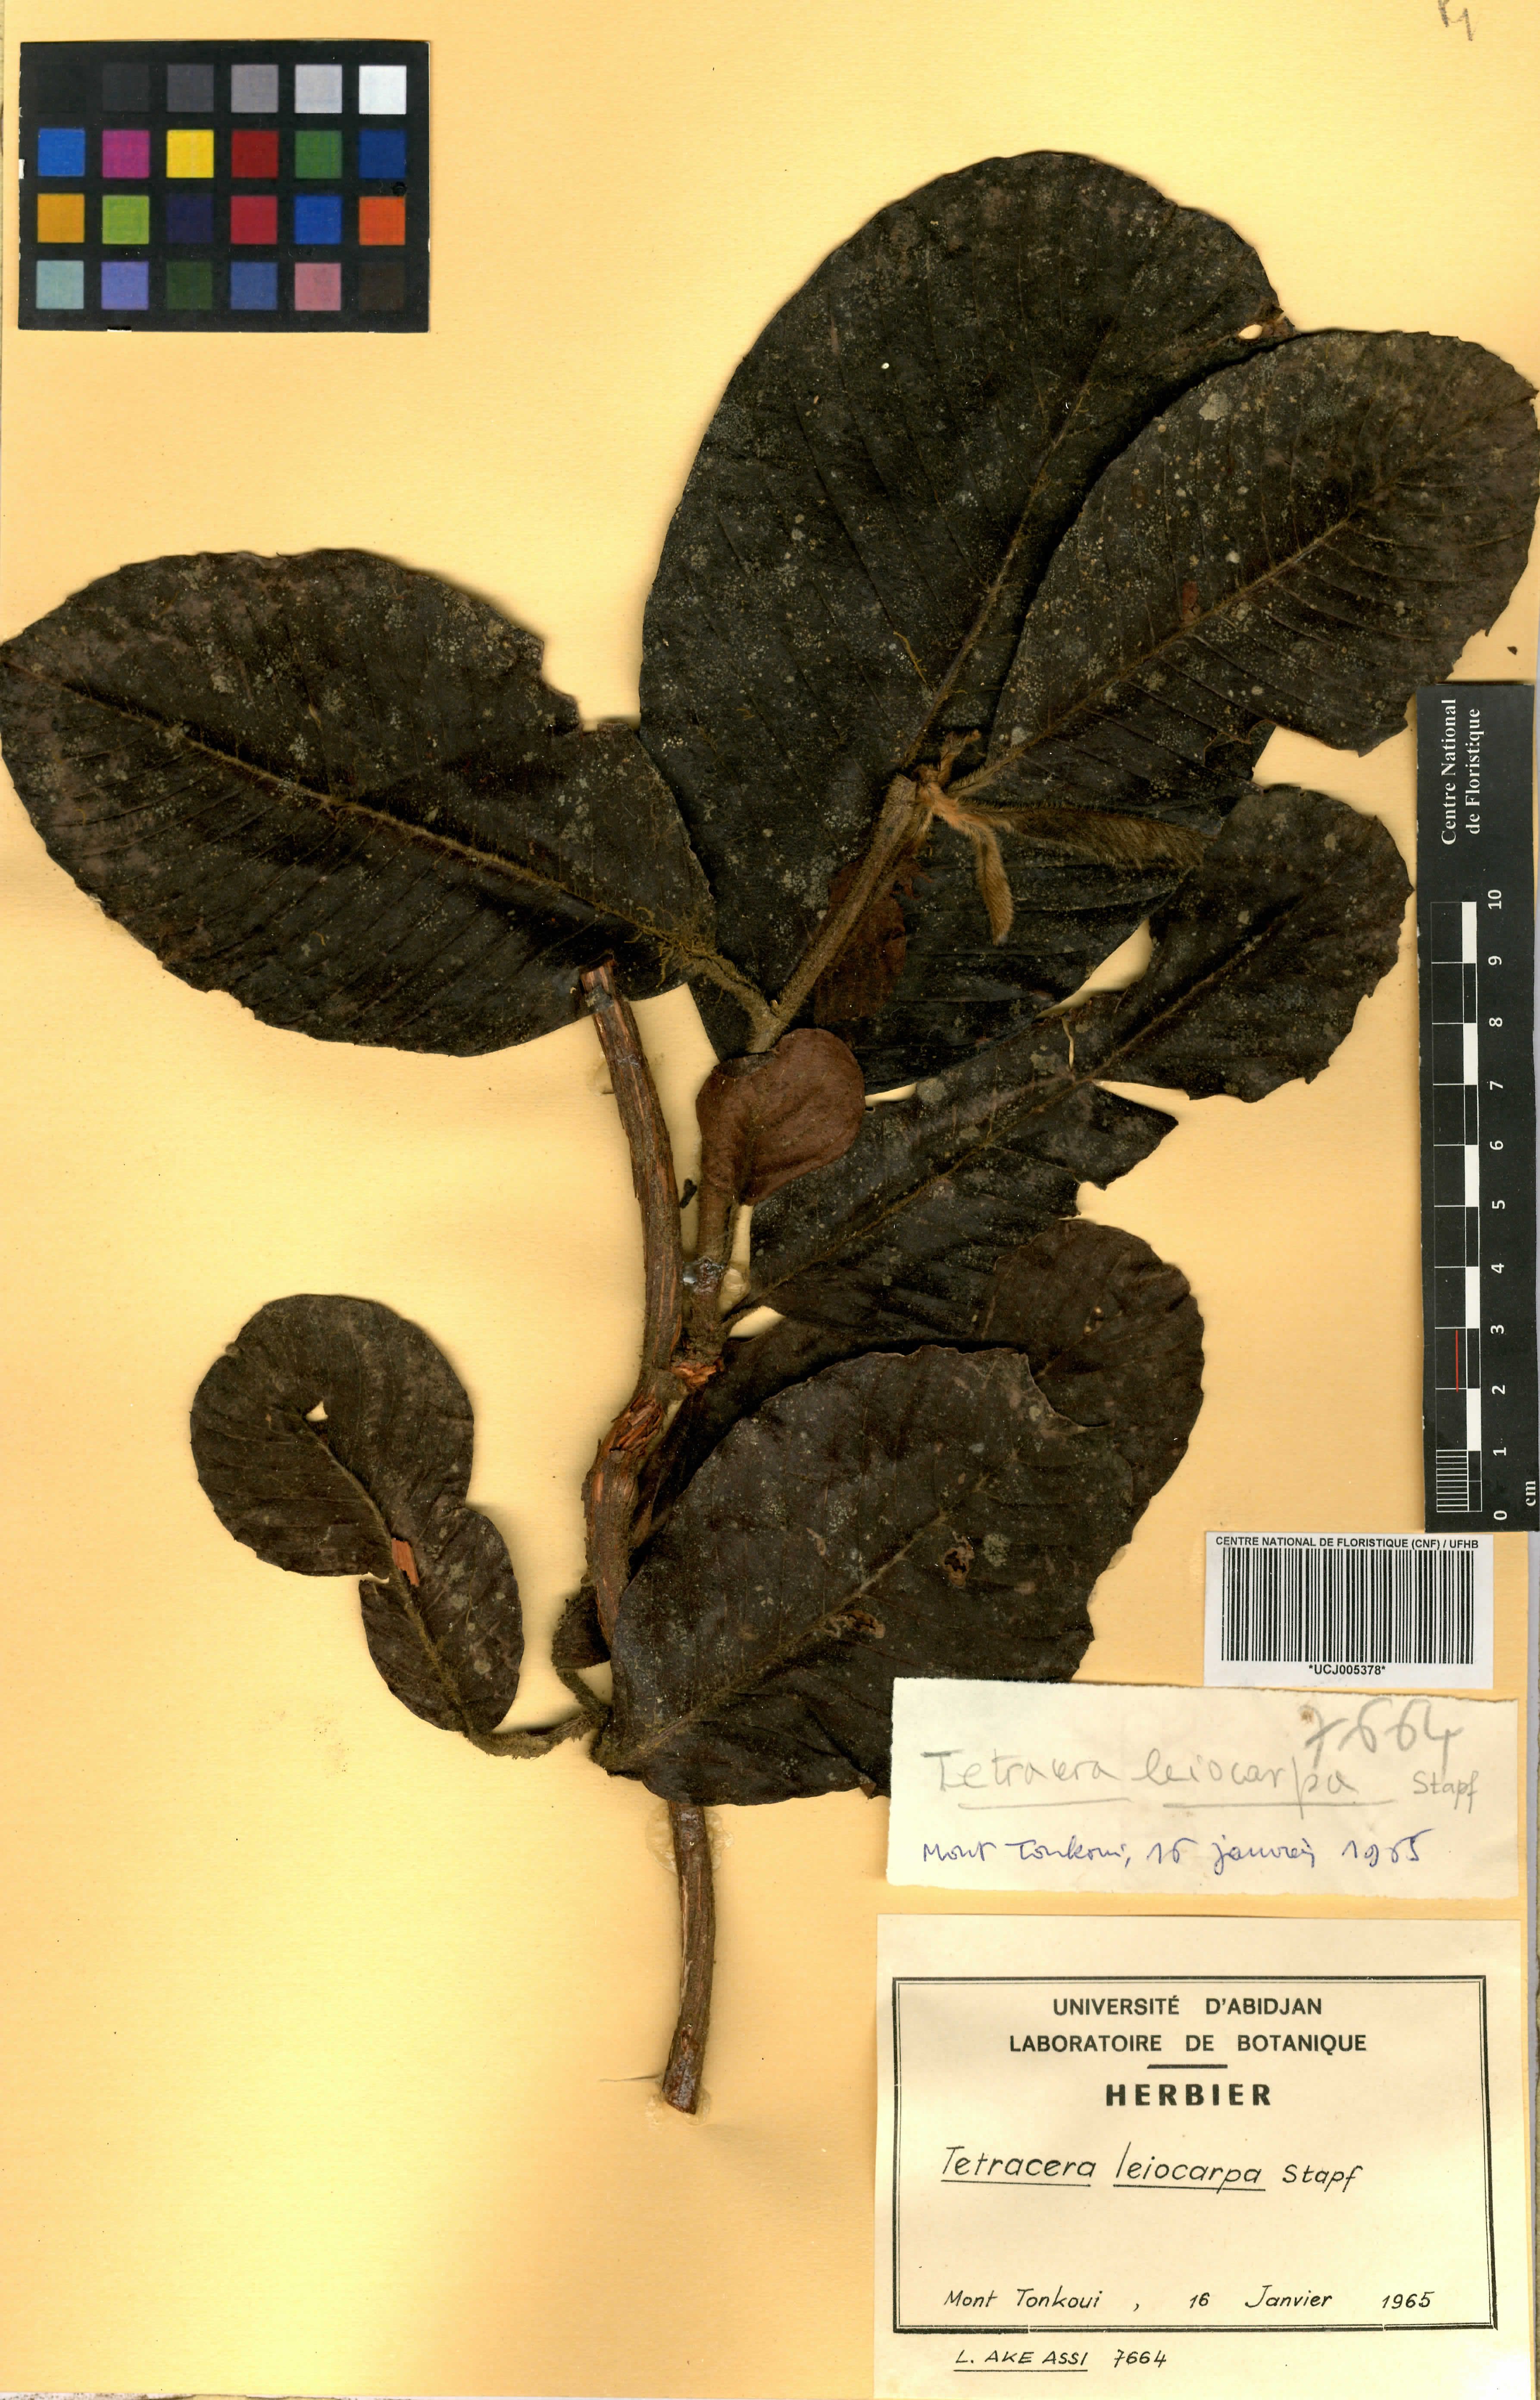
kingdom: Plantae
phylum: Tracheophyta
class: Magnoliopsida
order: Dilleniales
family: Dilleniaceae
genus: Tetracera
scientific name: Tetracera leiocarpa
